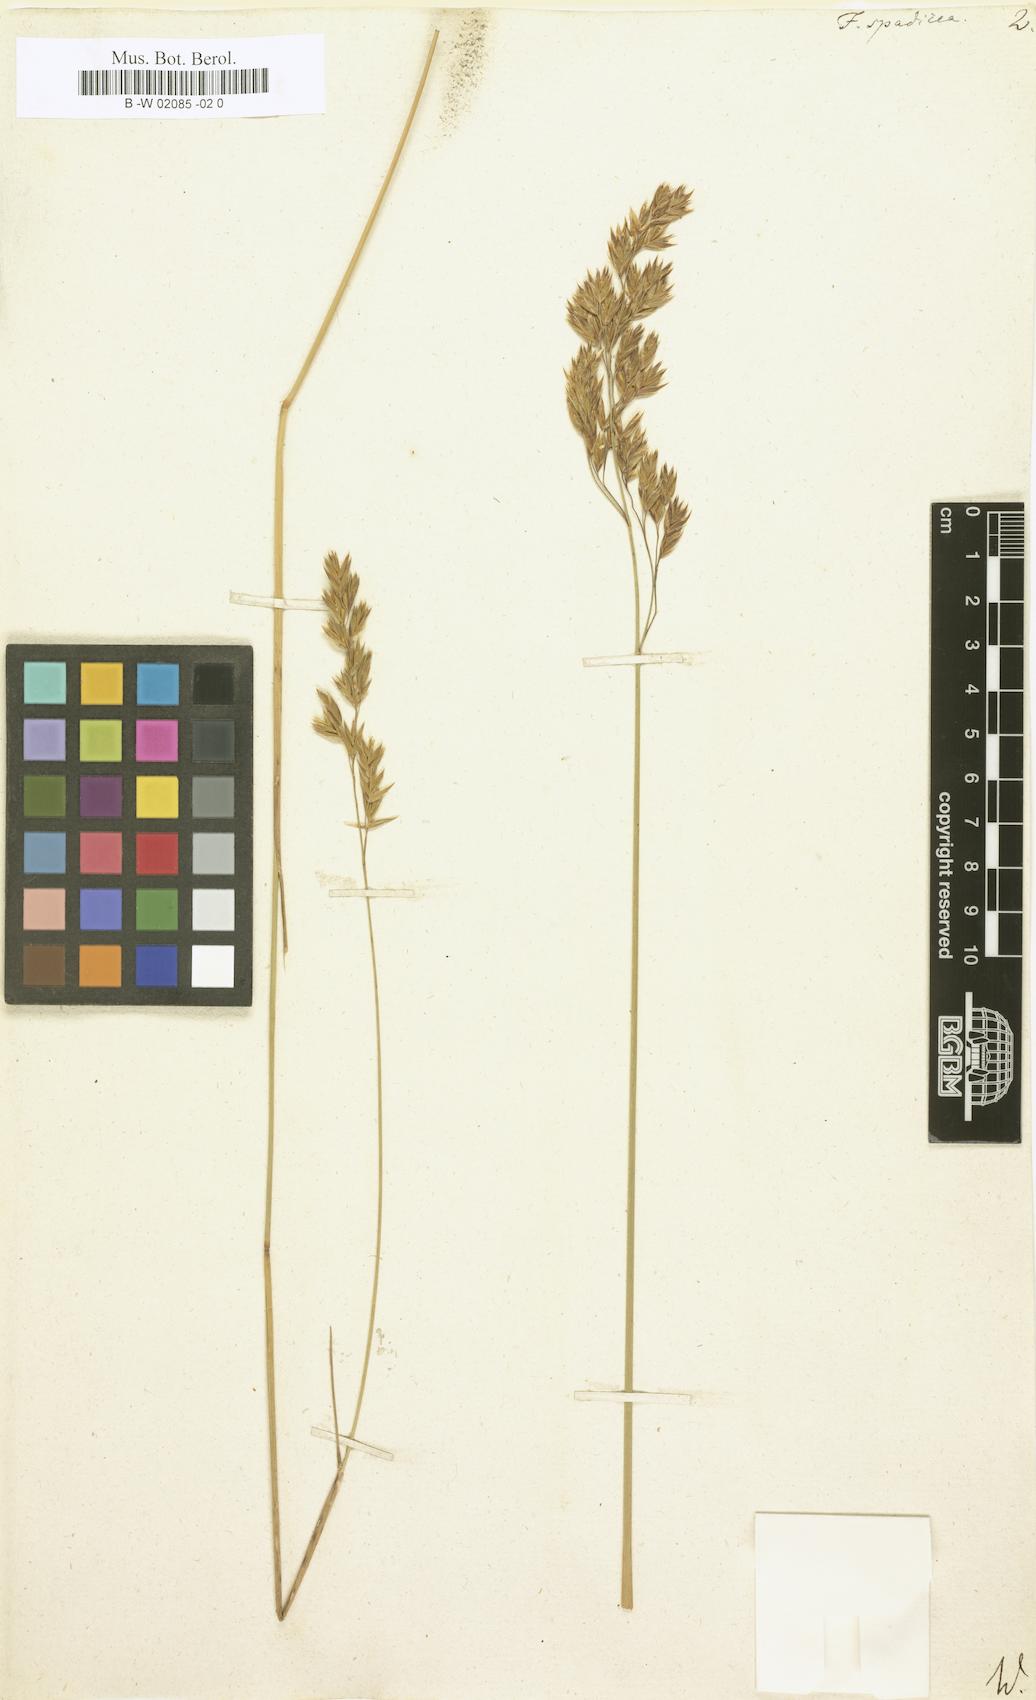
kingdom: Plantae
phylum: Tracheophyta
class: Liliopsida
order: Poales
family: Poaceae
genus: Festuca
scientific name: Festuca spadicea
